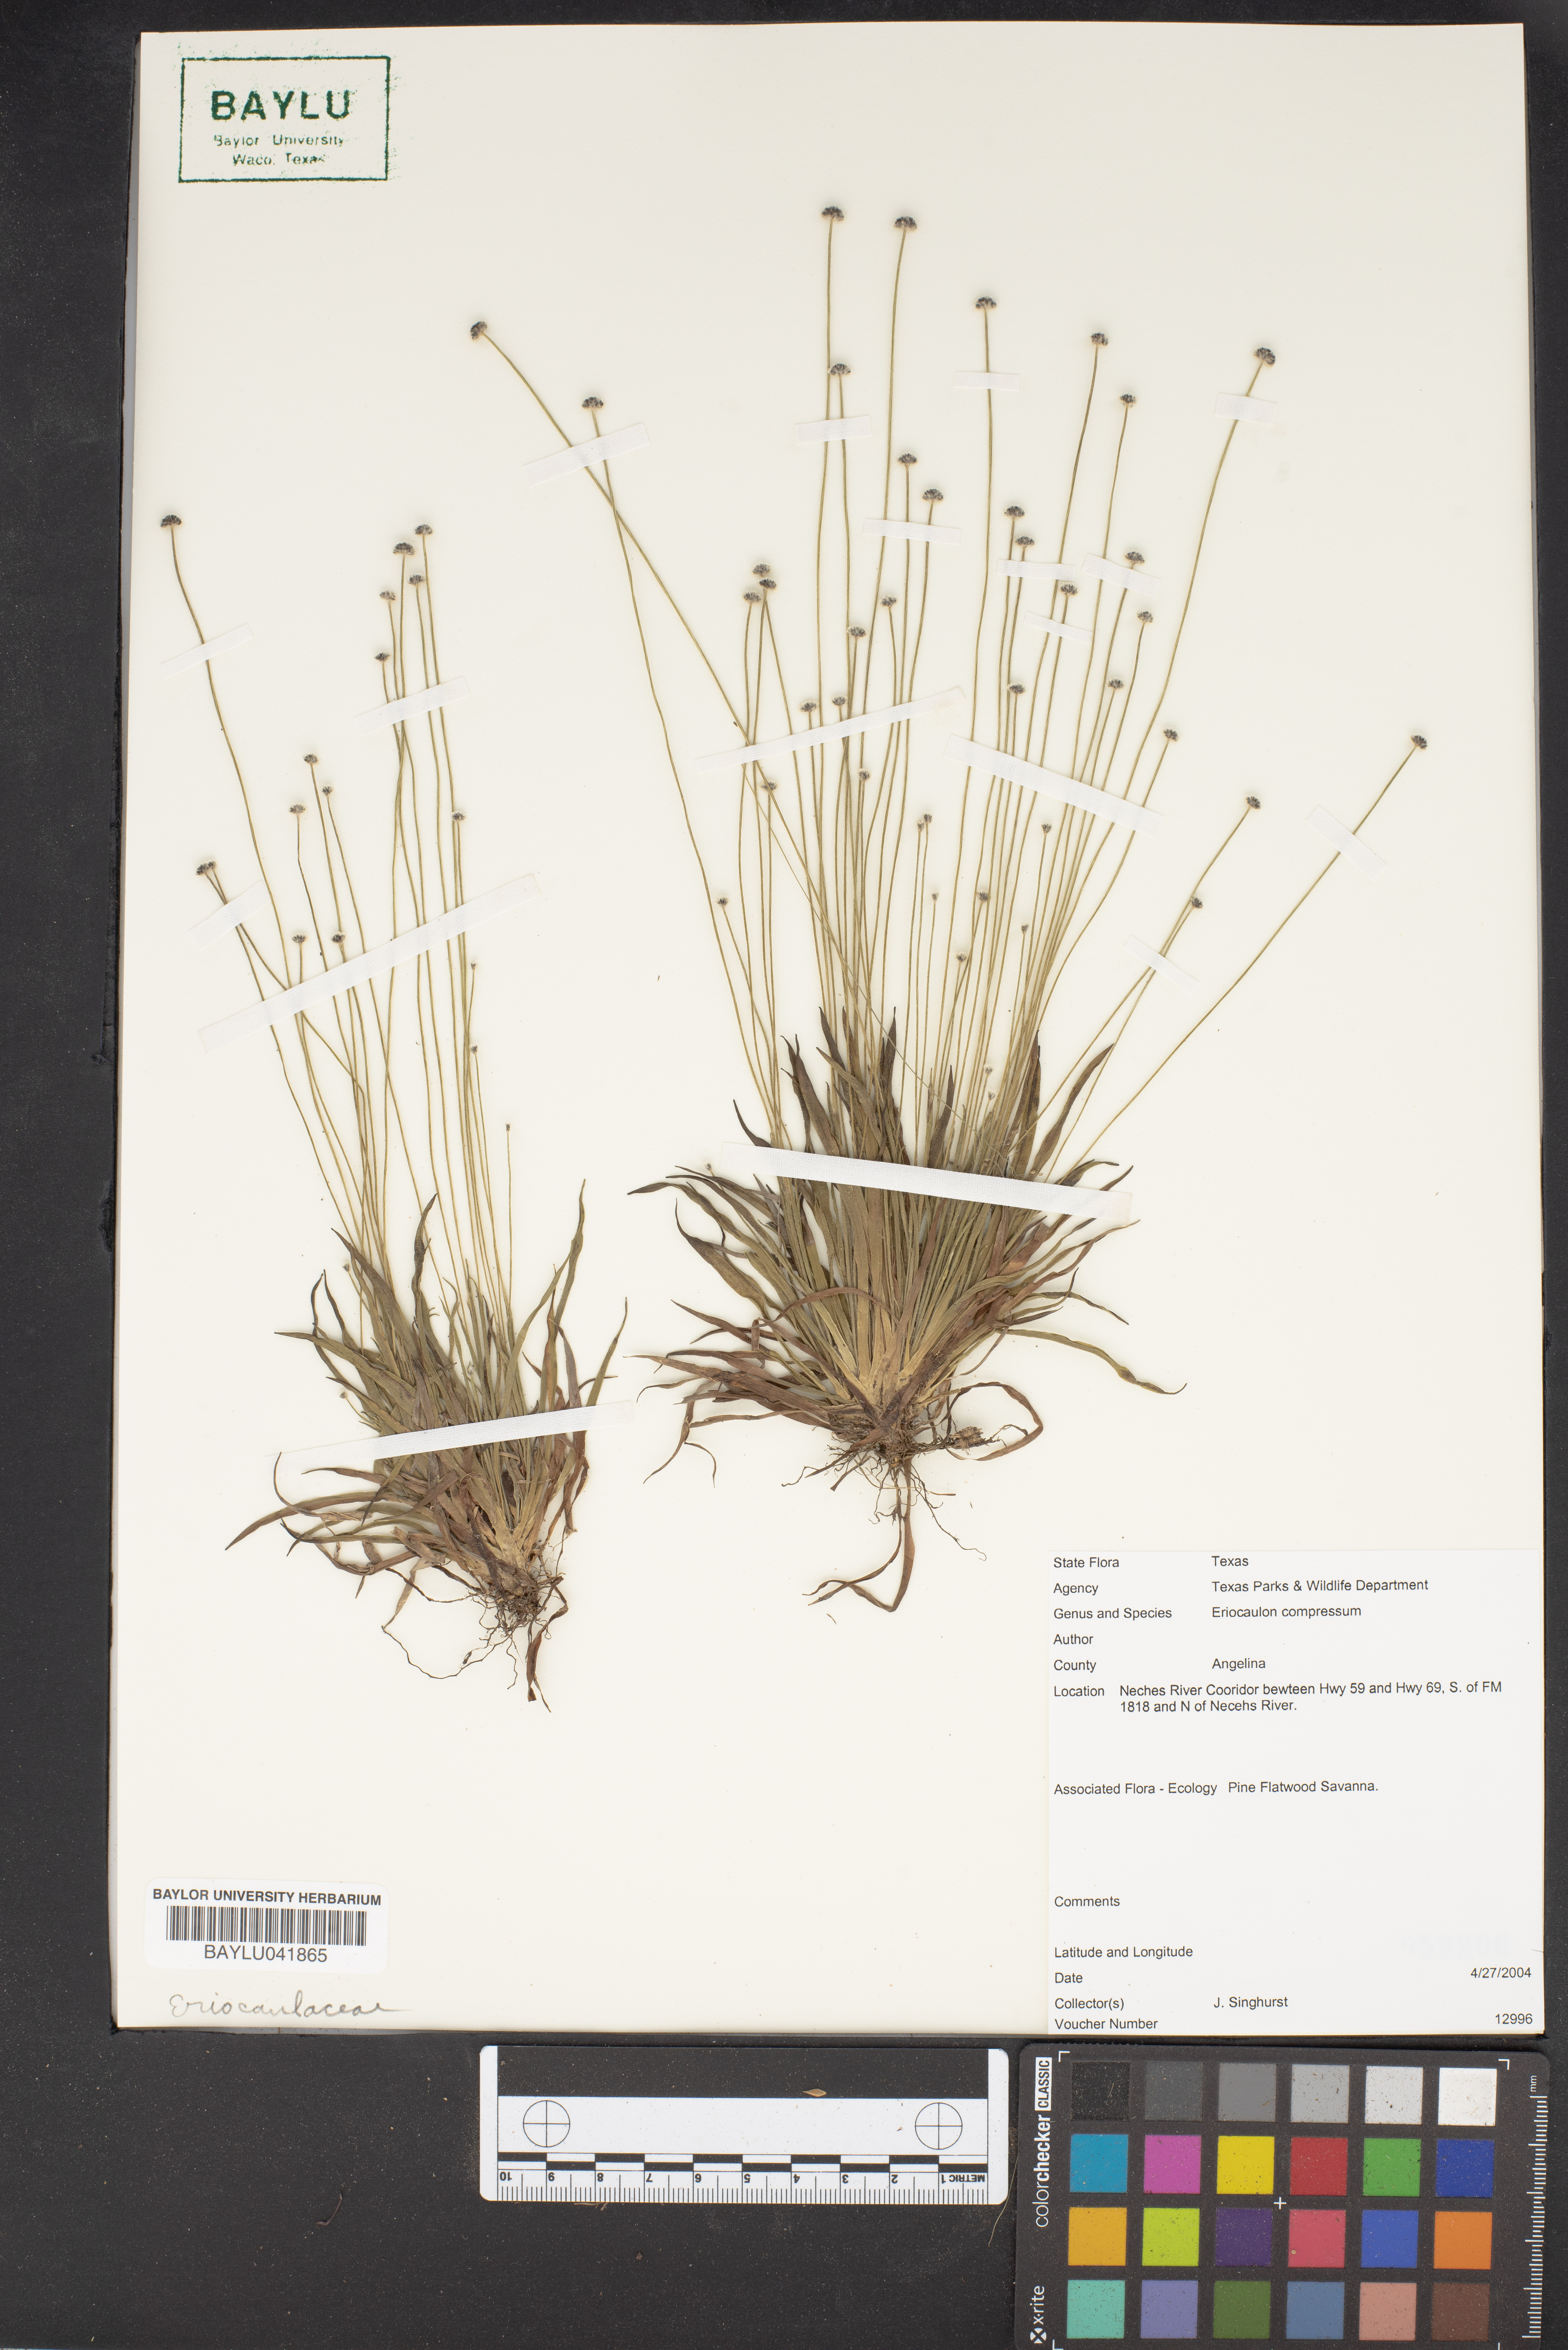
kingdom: Plantae
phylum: Tracheophyta
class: Liliopsida
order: Poales
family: Eriocaulaceae
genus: Eriocaulon
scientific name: Eriocaulon compressum
